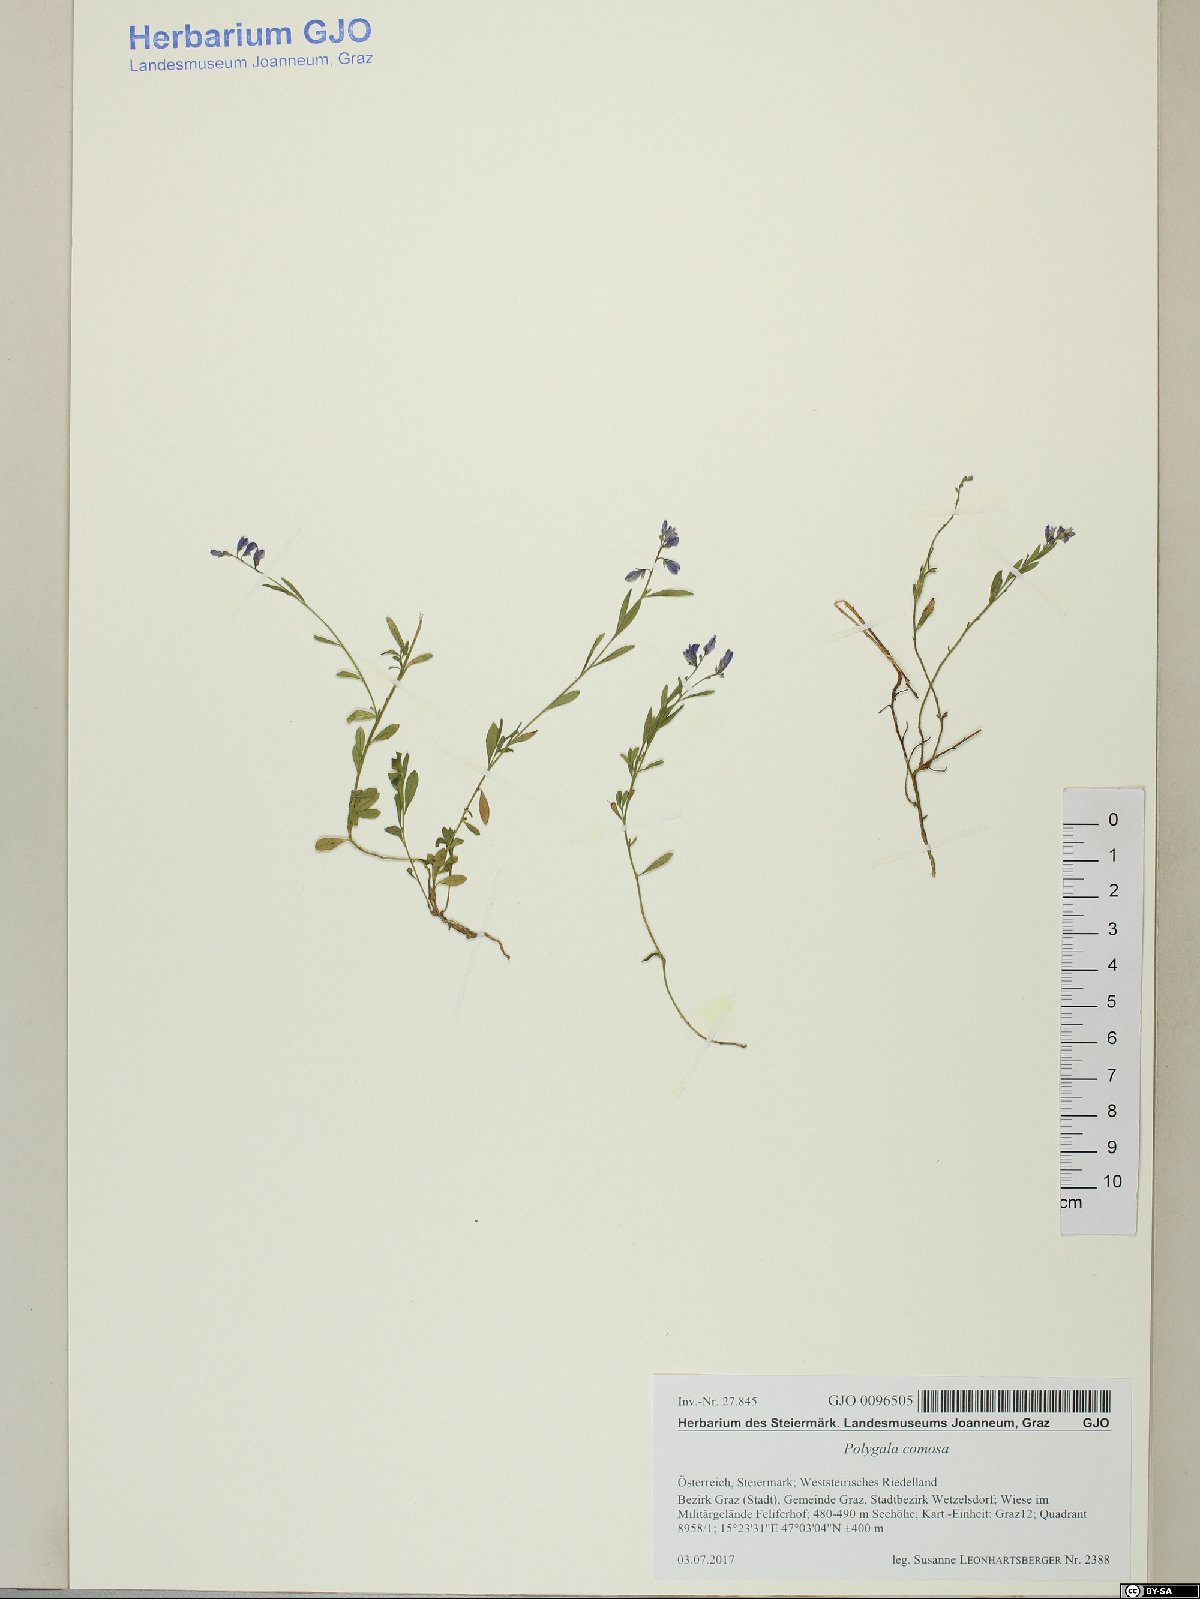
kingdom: Plantae
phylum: Tracheophyta
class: Magnoliopsida
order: Fabales
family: Polygalaceae
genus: Polygala
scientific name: Polygala comosa
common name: Tufted milkwort
